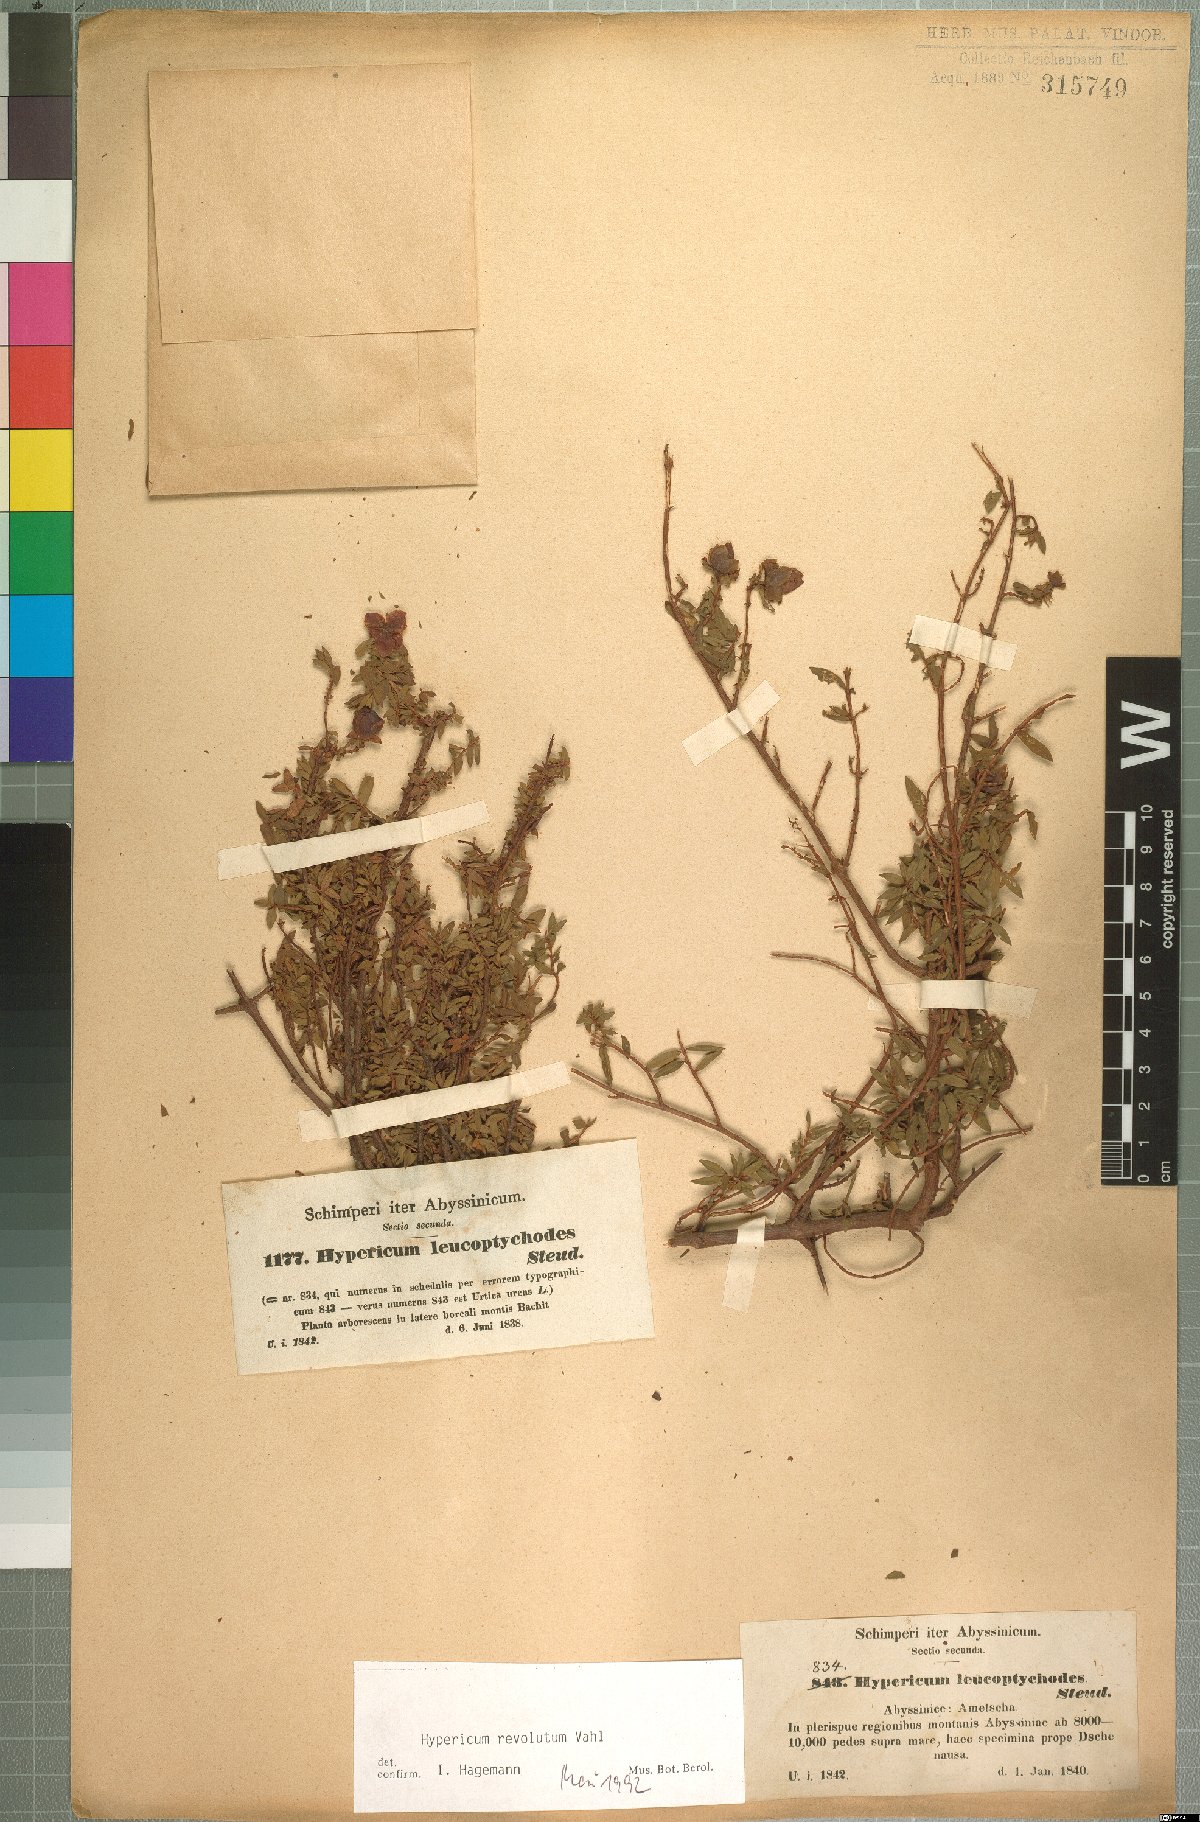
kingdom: Plantae
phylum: Tracheophyta
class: Magnoliopsida
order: Malpighiales
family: Hypericaceae
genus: Hypericum
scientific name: Hypericum revolutum
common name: Curry bush
